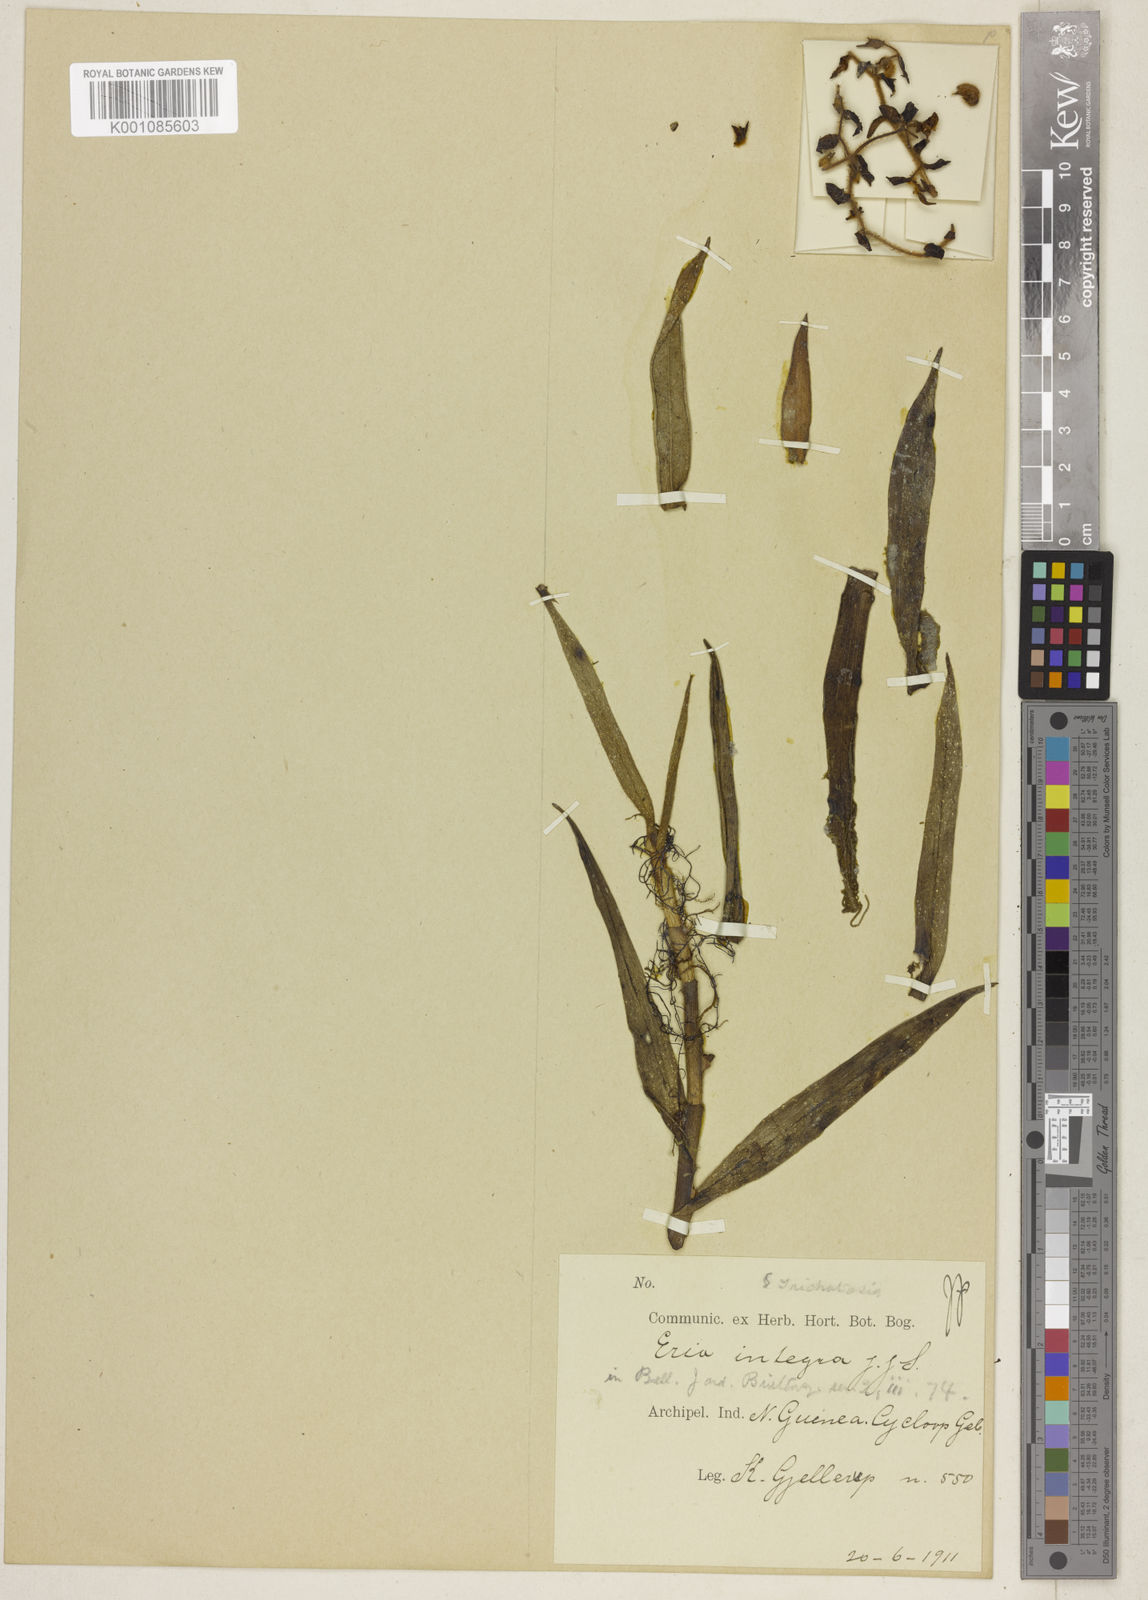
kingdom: Plantae
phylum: Tracheophyta
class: Liliopsida
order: Asparagales
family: Orchidaceae
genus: Trichotosia
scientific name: Trichotosia gjellerupii
